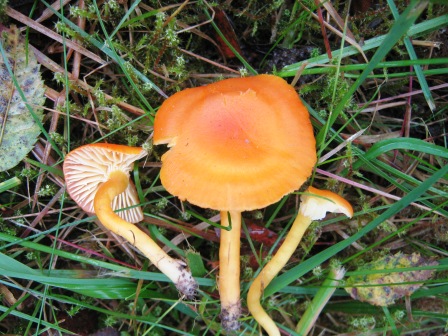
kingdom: Fungi
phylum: Basidiomycota
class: Agaricomycetes
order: Agaricales
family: Hygrophoraceae
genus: Hygrocybe
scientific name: Hygrocybe reidii
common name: honning-vokshat
